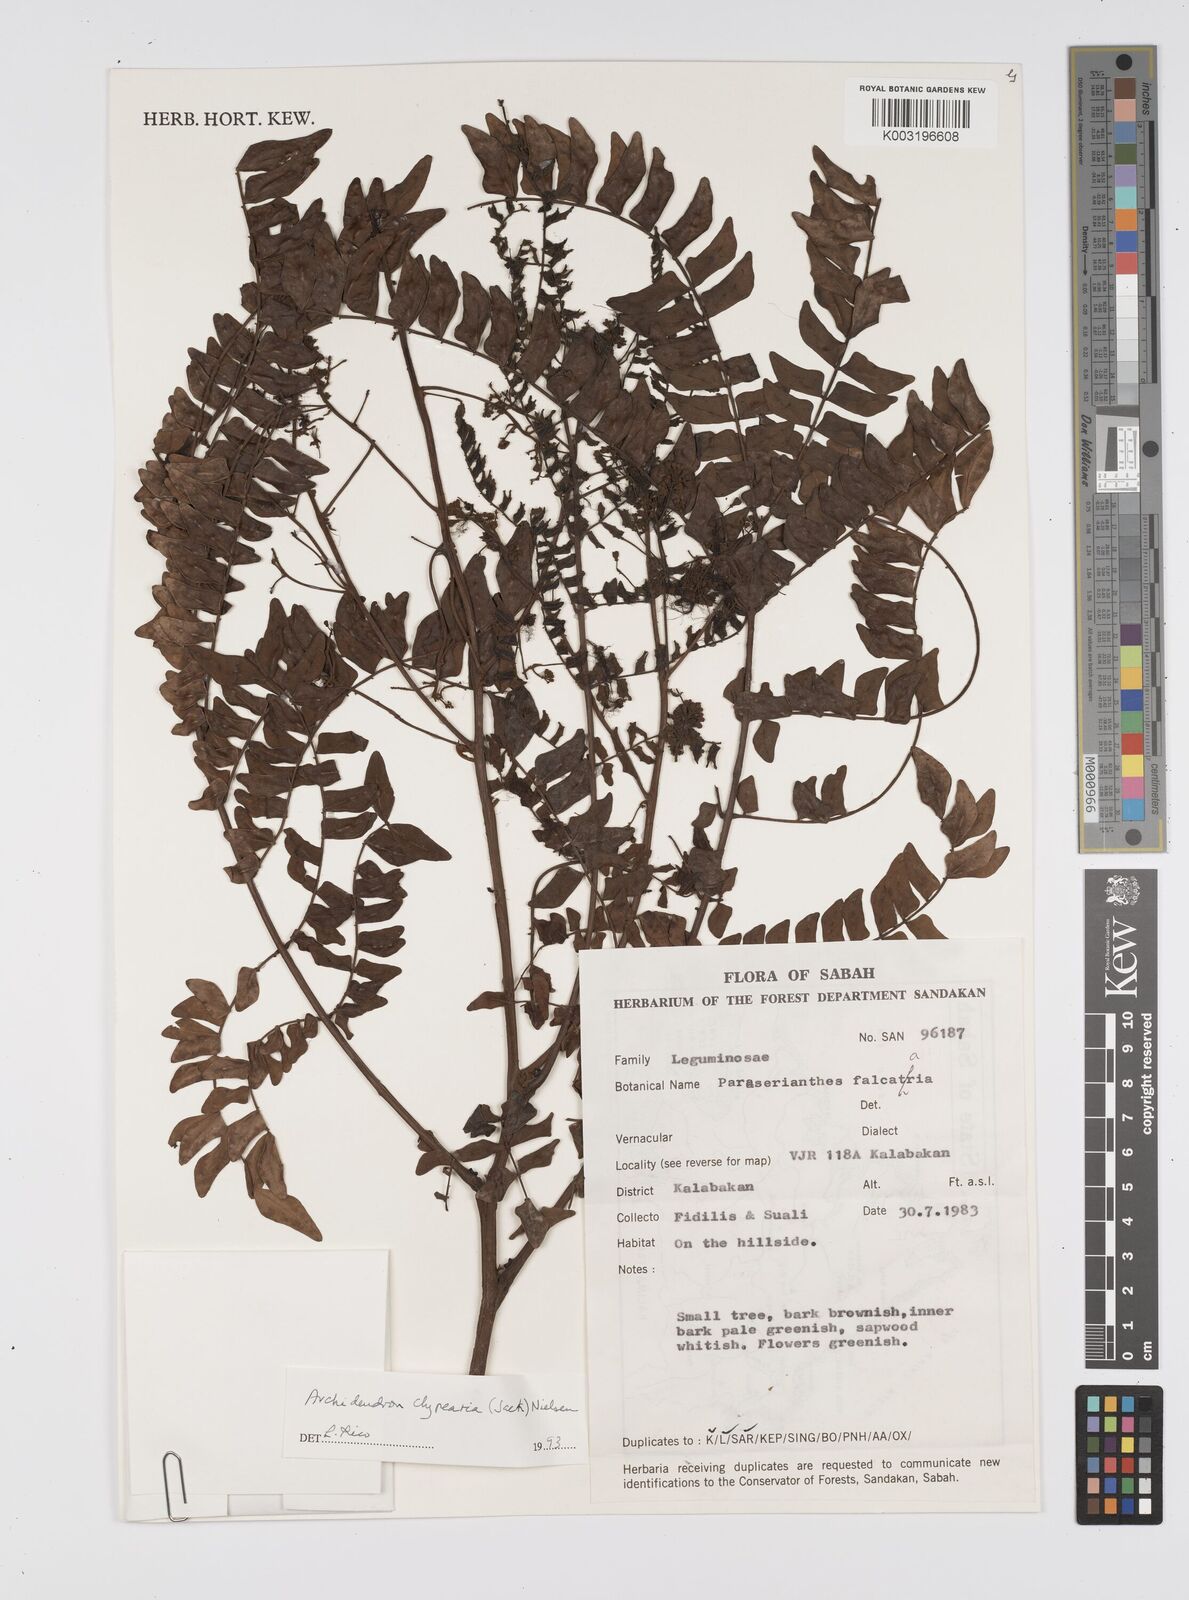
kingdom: Plantae
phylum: Tracheophyta
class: Magnoliopsida
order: Fabales
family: Fabaceae
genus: Archidendron
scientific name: Archidendron clypearia
